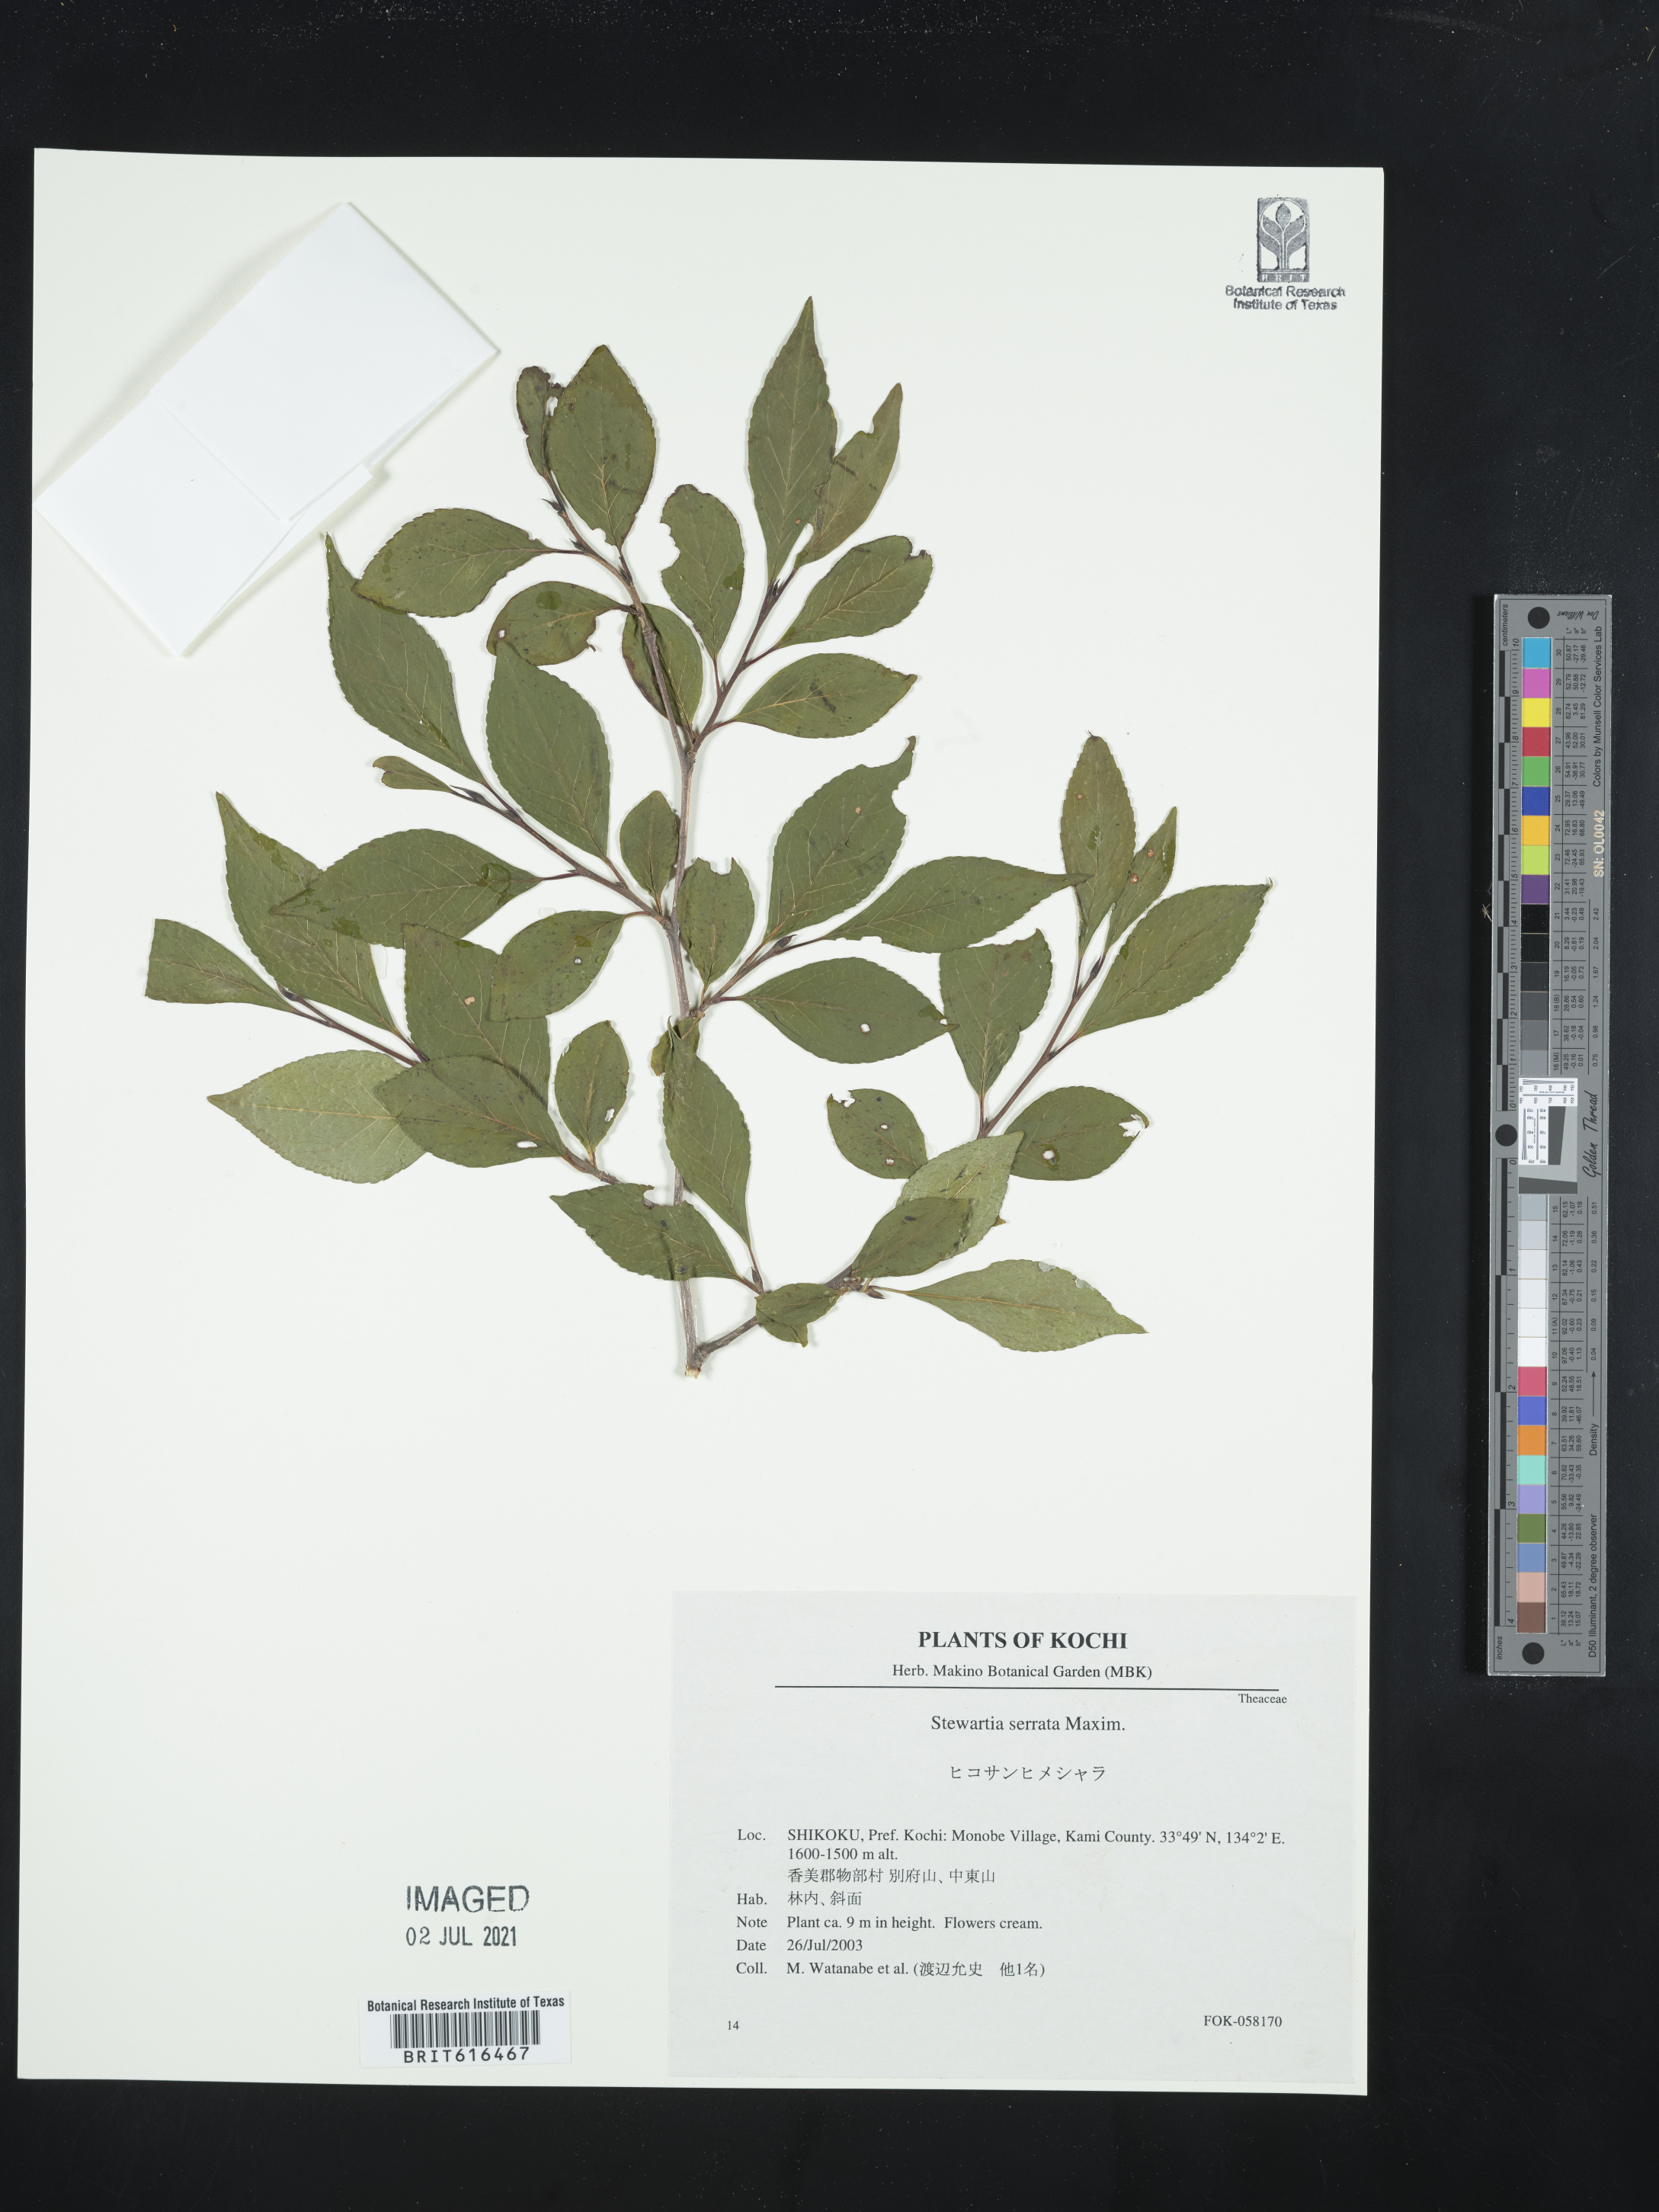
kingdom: Plantae
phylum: Tracheophyta
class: Magnoliopsida
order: Ericales
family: Theaceae
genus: Stewartia
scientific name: Stewartia serrata
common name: Sawtooth stewartia
